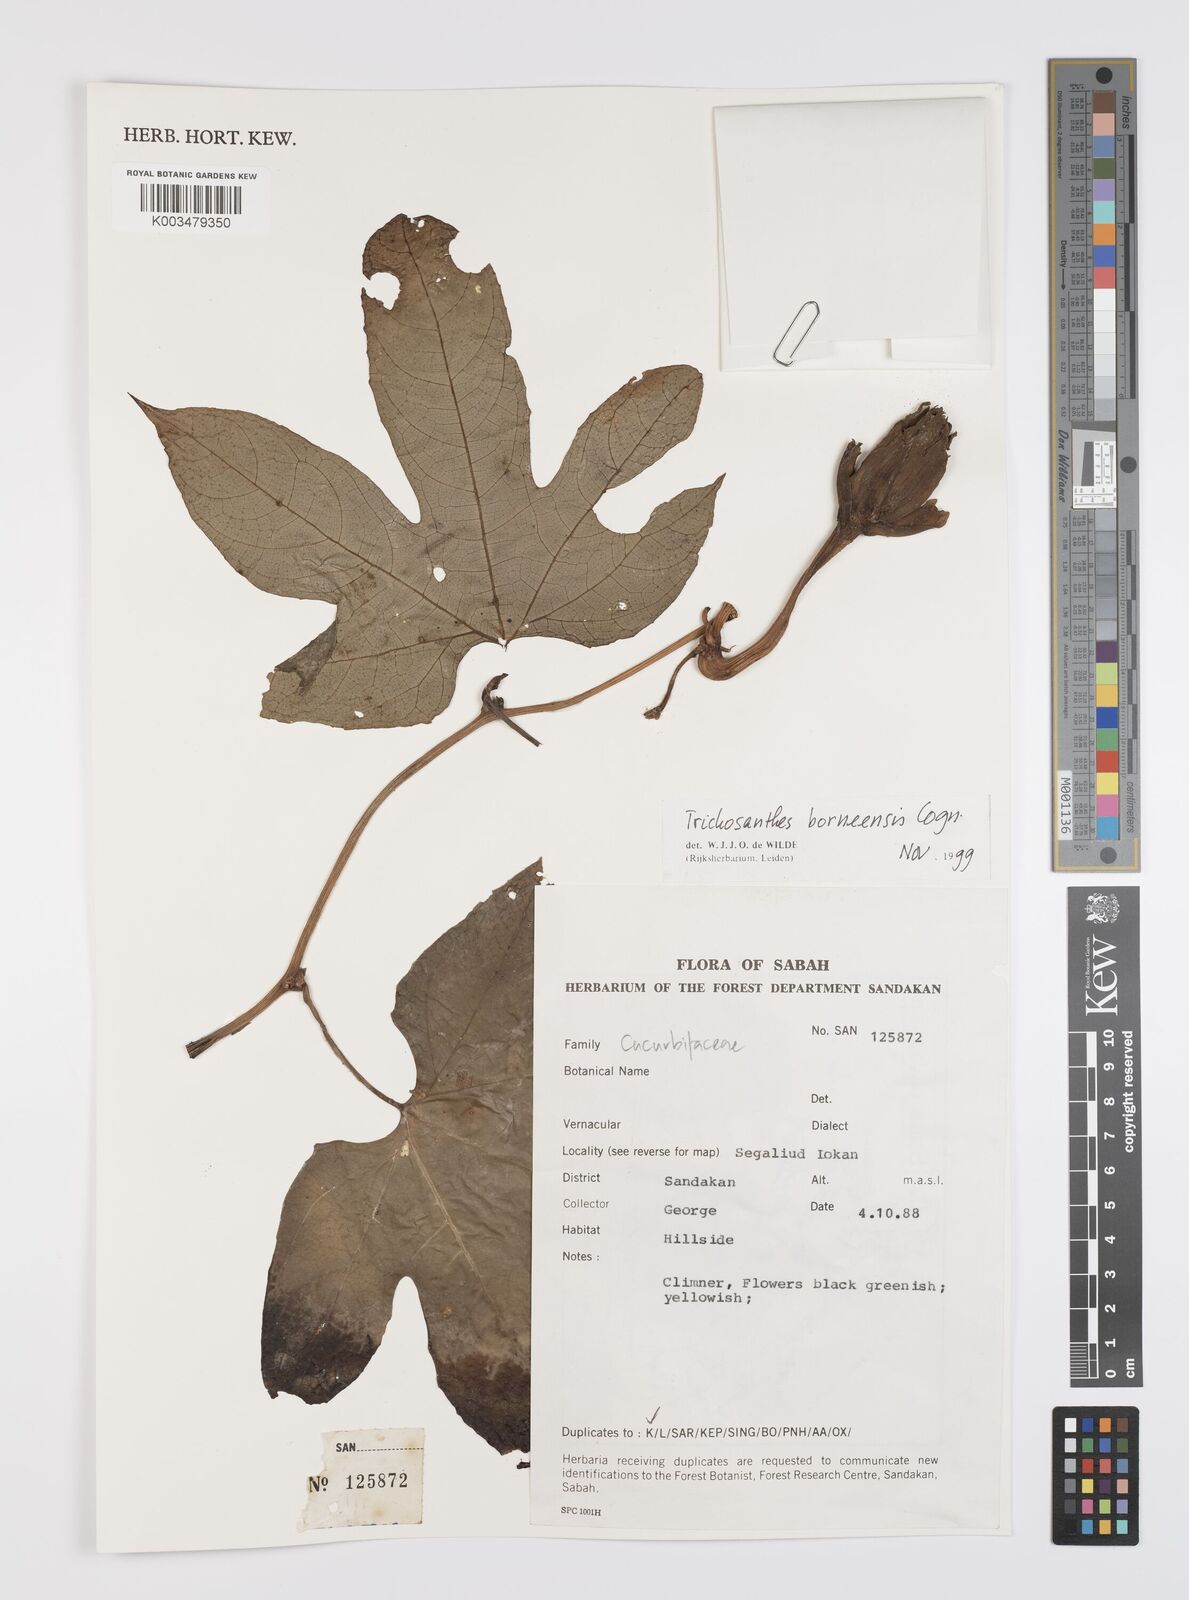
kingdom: Plantae
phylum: Tracheophyta
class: Magnoliopsida
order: Cucurbitales
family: Cucurbitaceae
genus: Trichosanthes
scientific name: Trichosanthes borneensis
